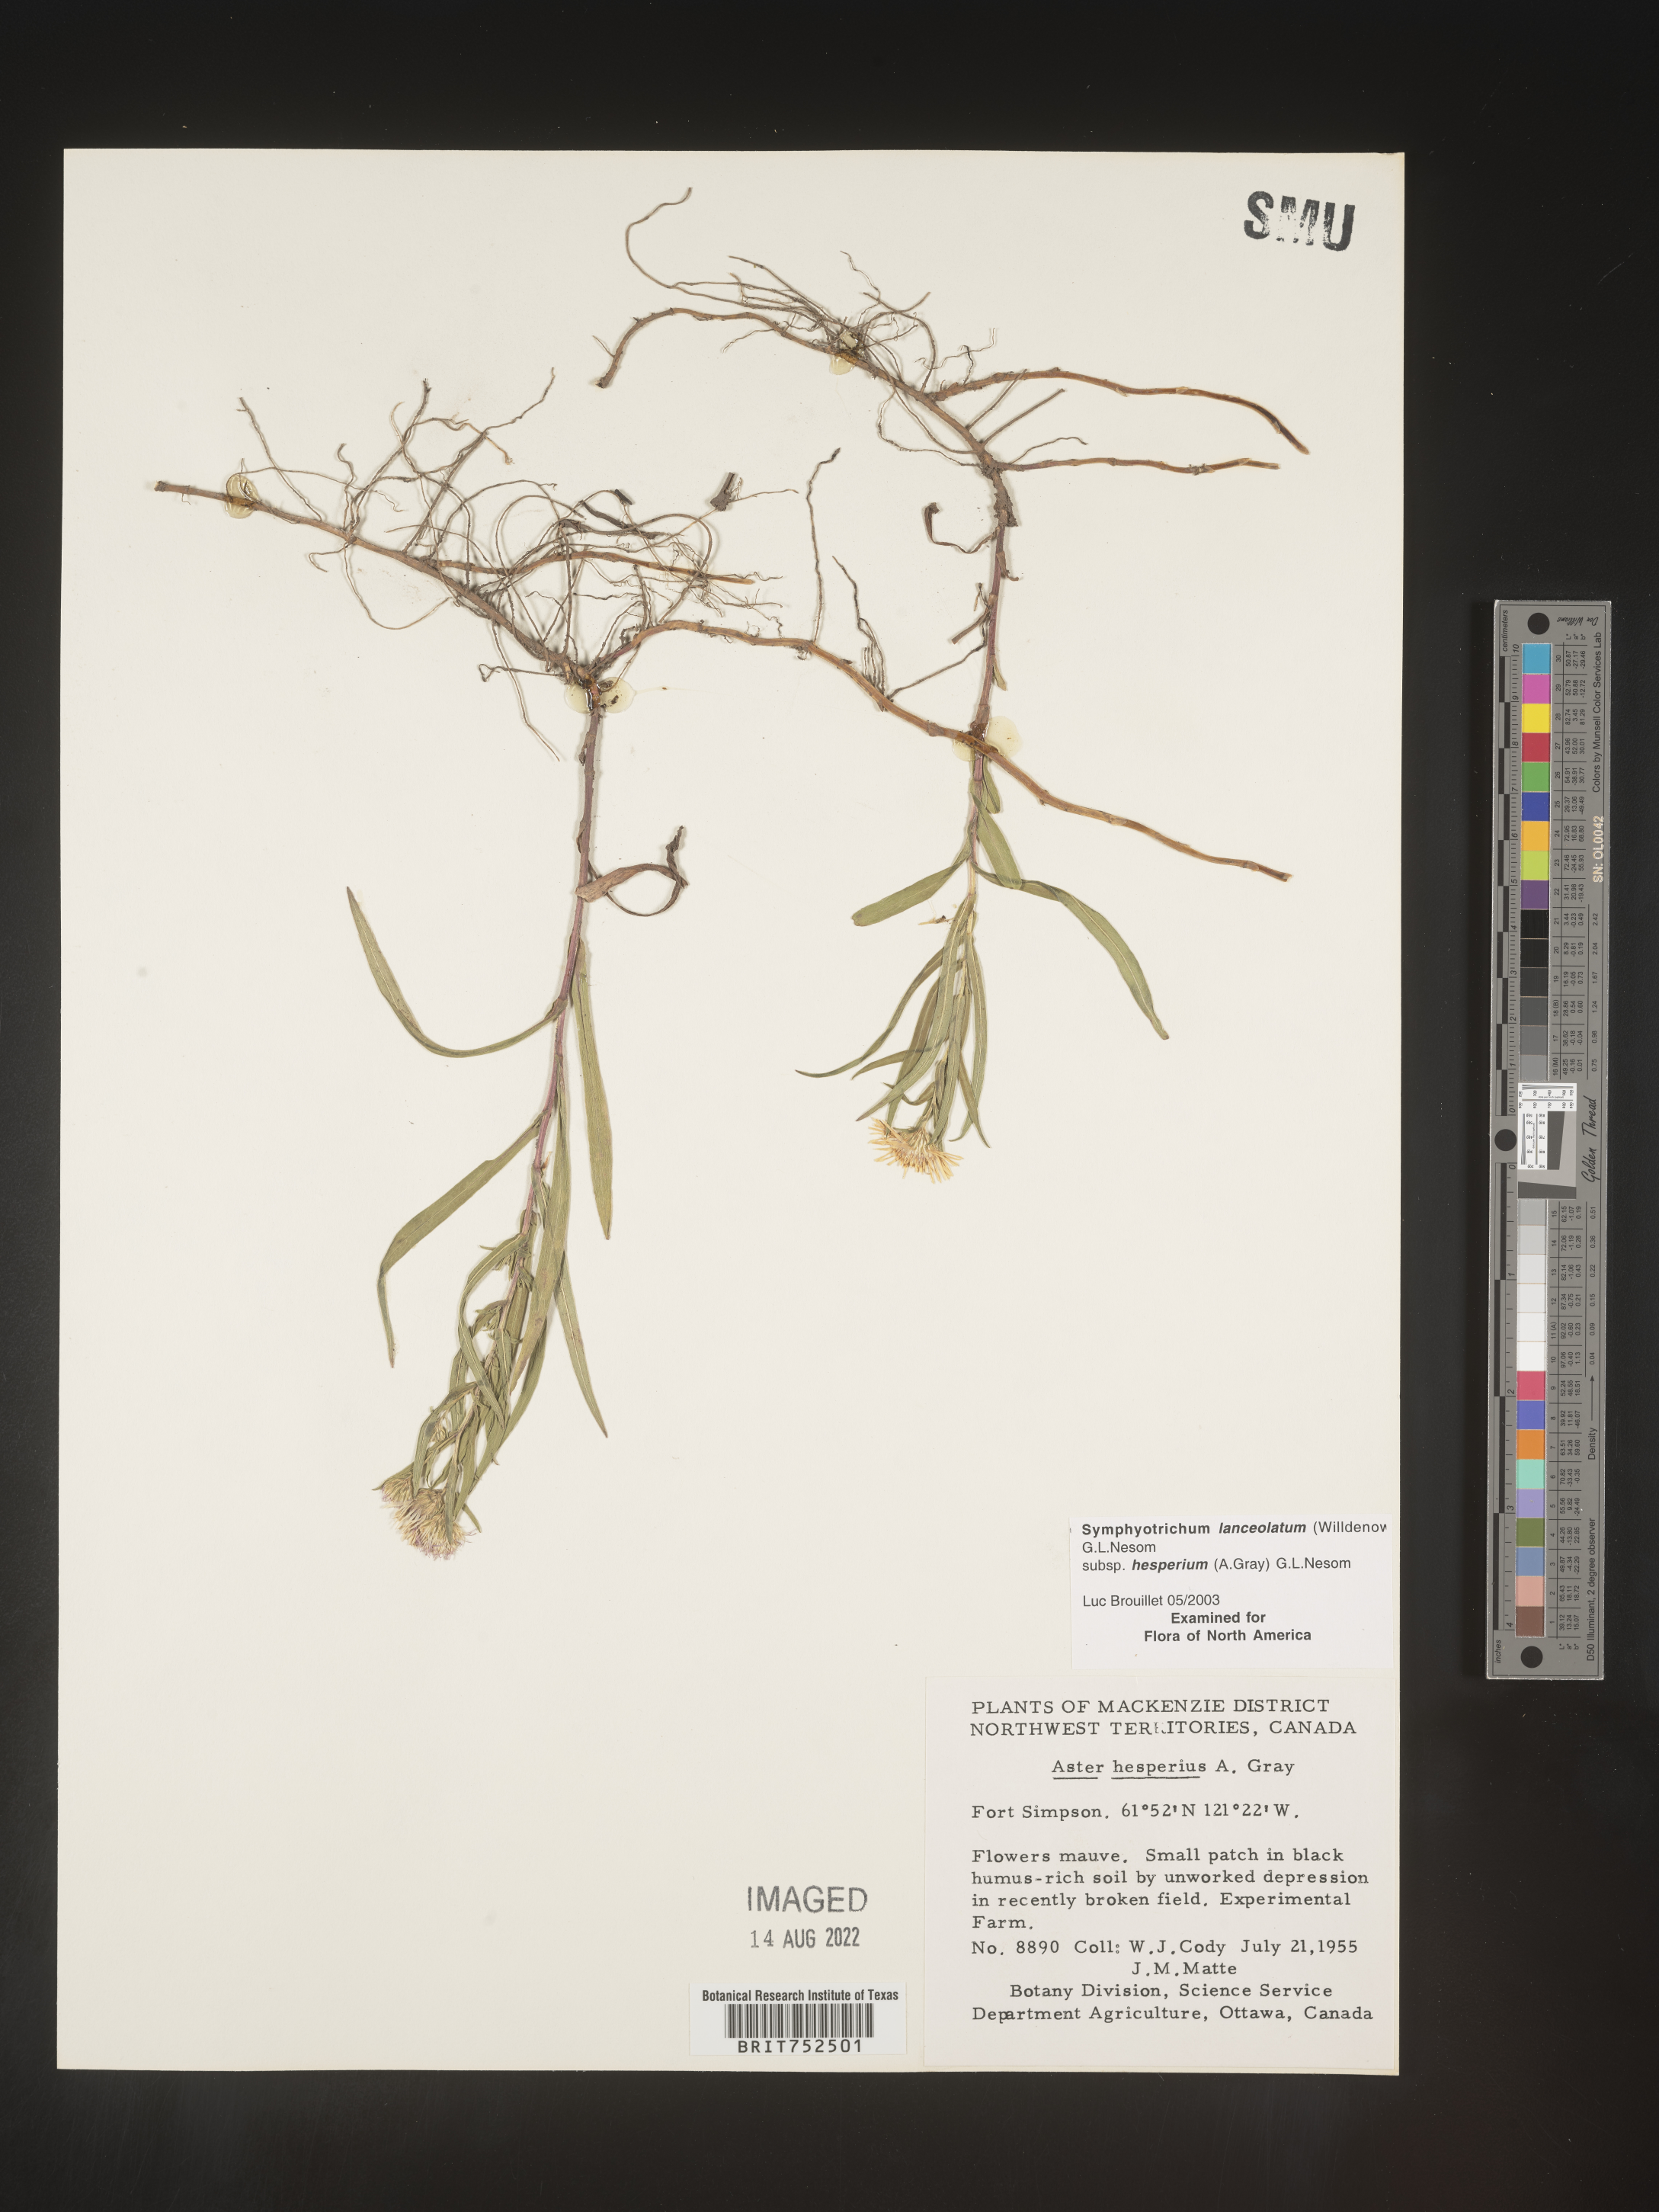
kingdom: Plantae
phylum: Tracheophyta
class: Magnoliopsida
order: Asterales
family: Asteraceae
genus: Symphyotrichum
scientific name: Symphyotrichum lanceolatum
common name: Panicled aster
